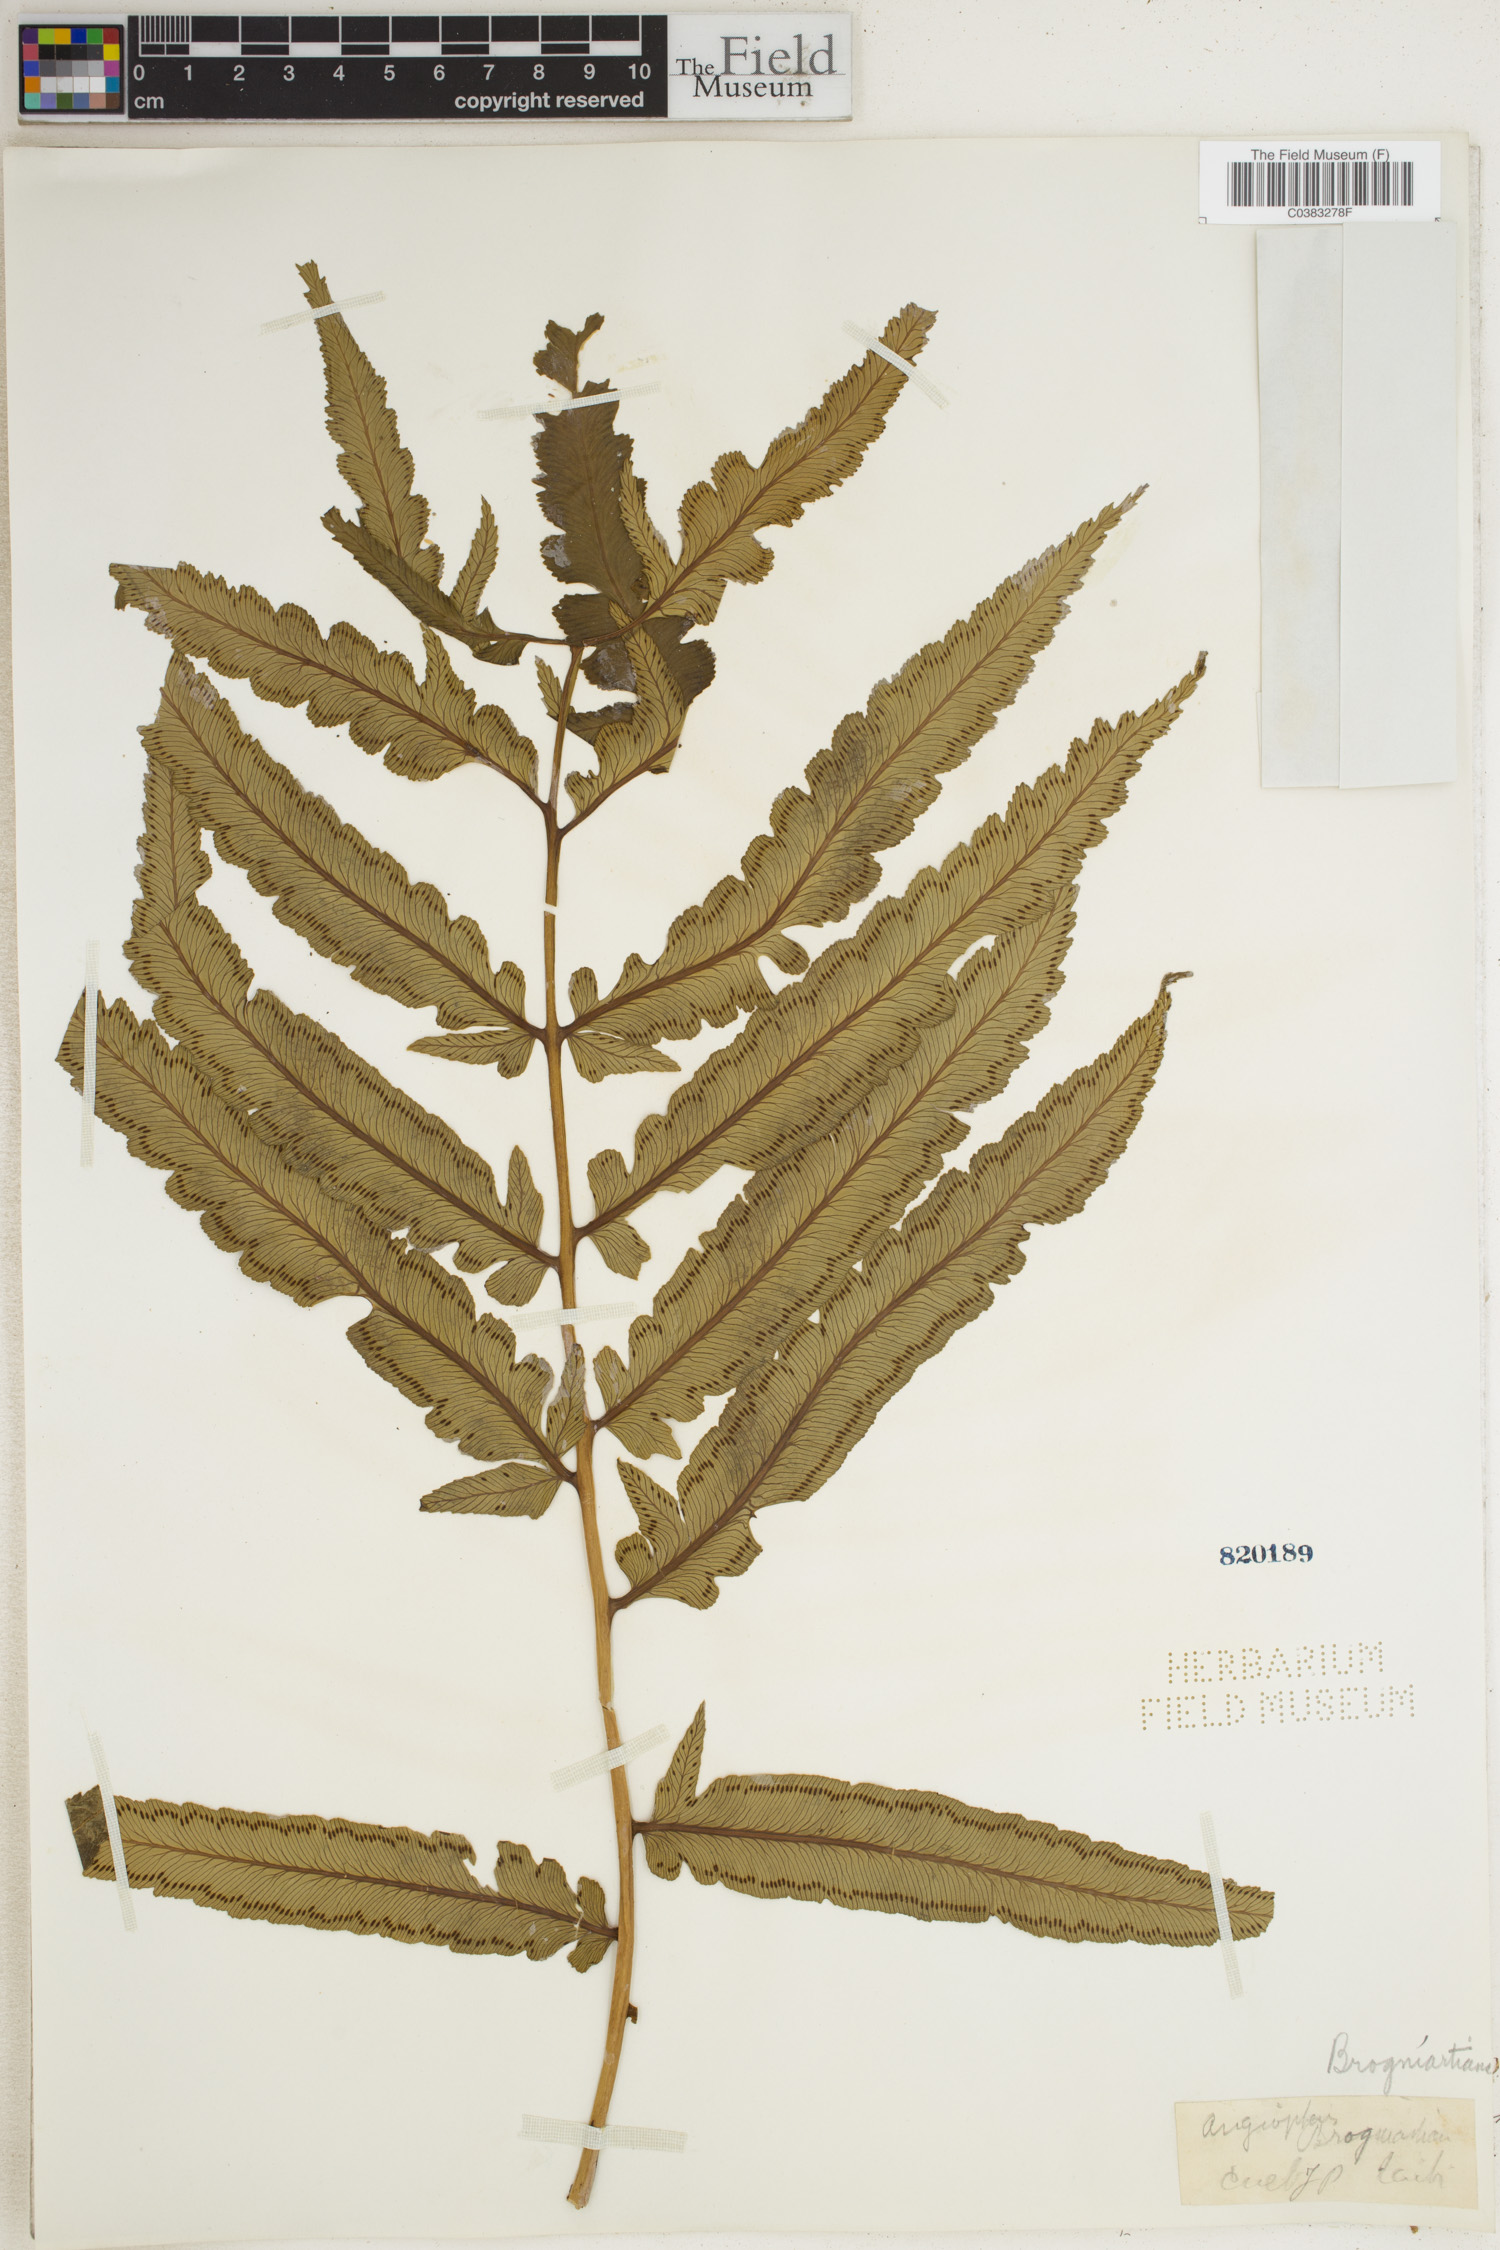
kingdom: Plantae
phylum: Tracheophyta
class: Polypodiopsida
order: Marattiales
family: Marattiaceae
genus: Angiopteris
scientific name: Angiopteris
